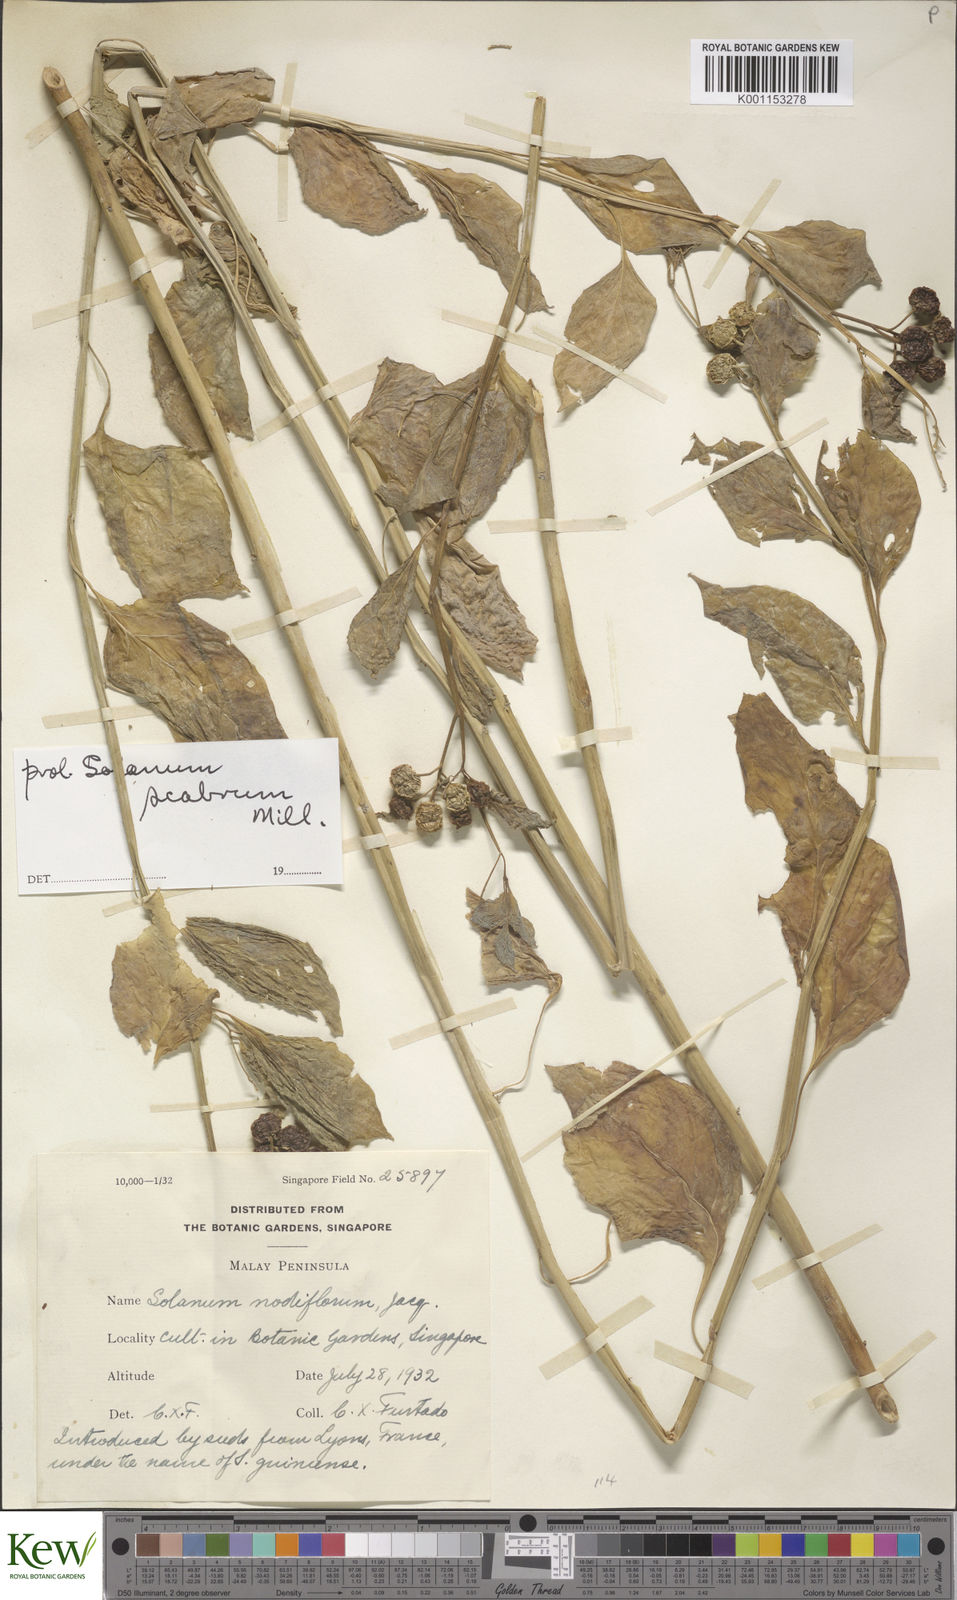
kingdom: Plantae
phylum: Tracheophyta
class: Magnoliopsida
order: Solanales
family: Solanaceae
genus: Solanum
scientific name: Solanum scabrum
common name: Garden-huckleberry
